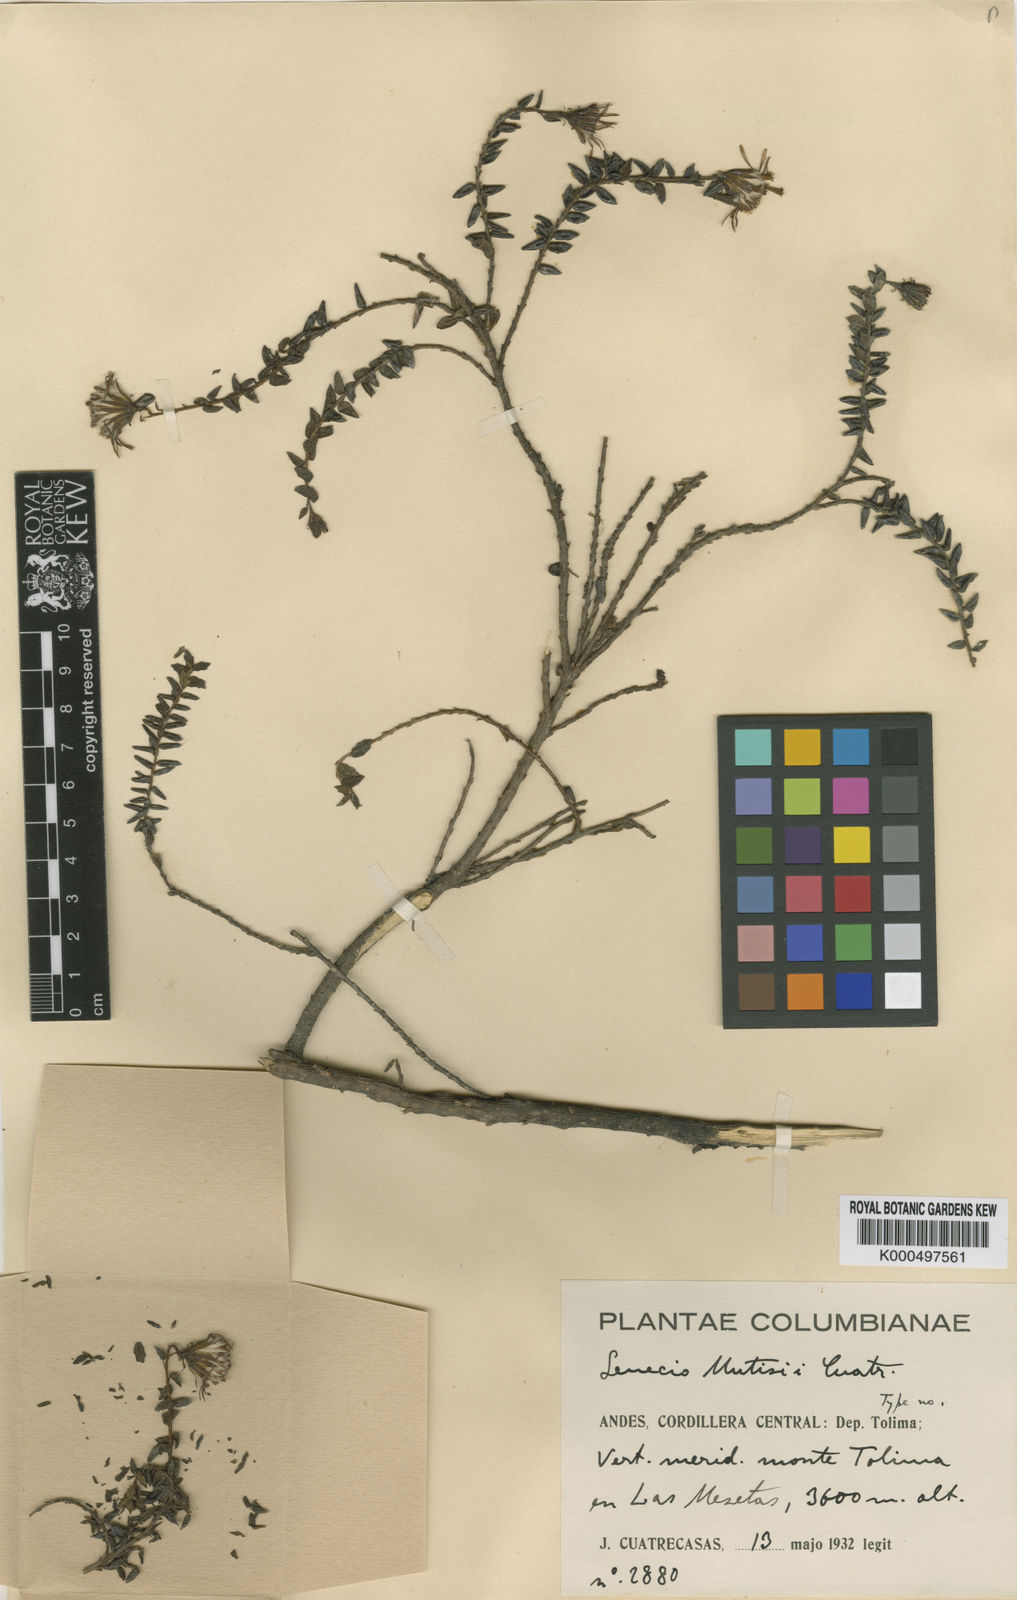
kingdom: Plantae
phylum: Tracheophyta
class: Magnoliopsida
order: Asterales
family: Asteraceae
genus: Monticalia
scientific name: Monticalia arbutifolia
